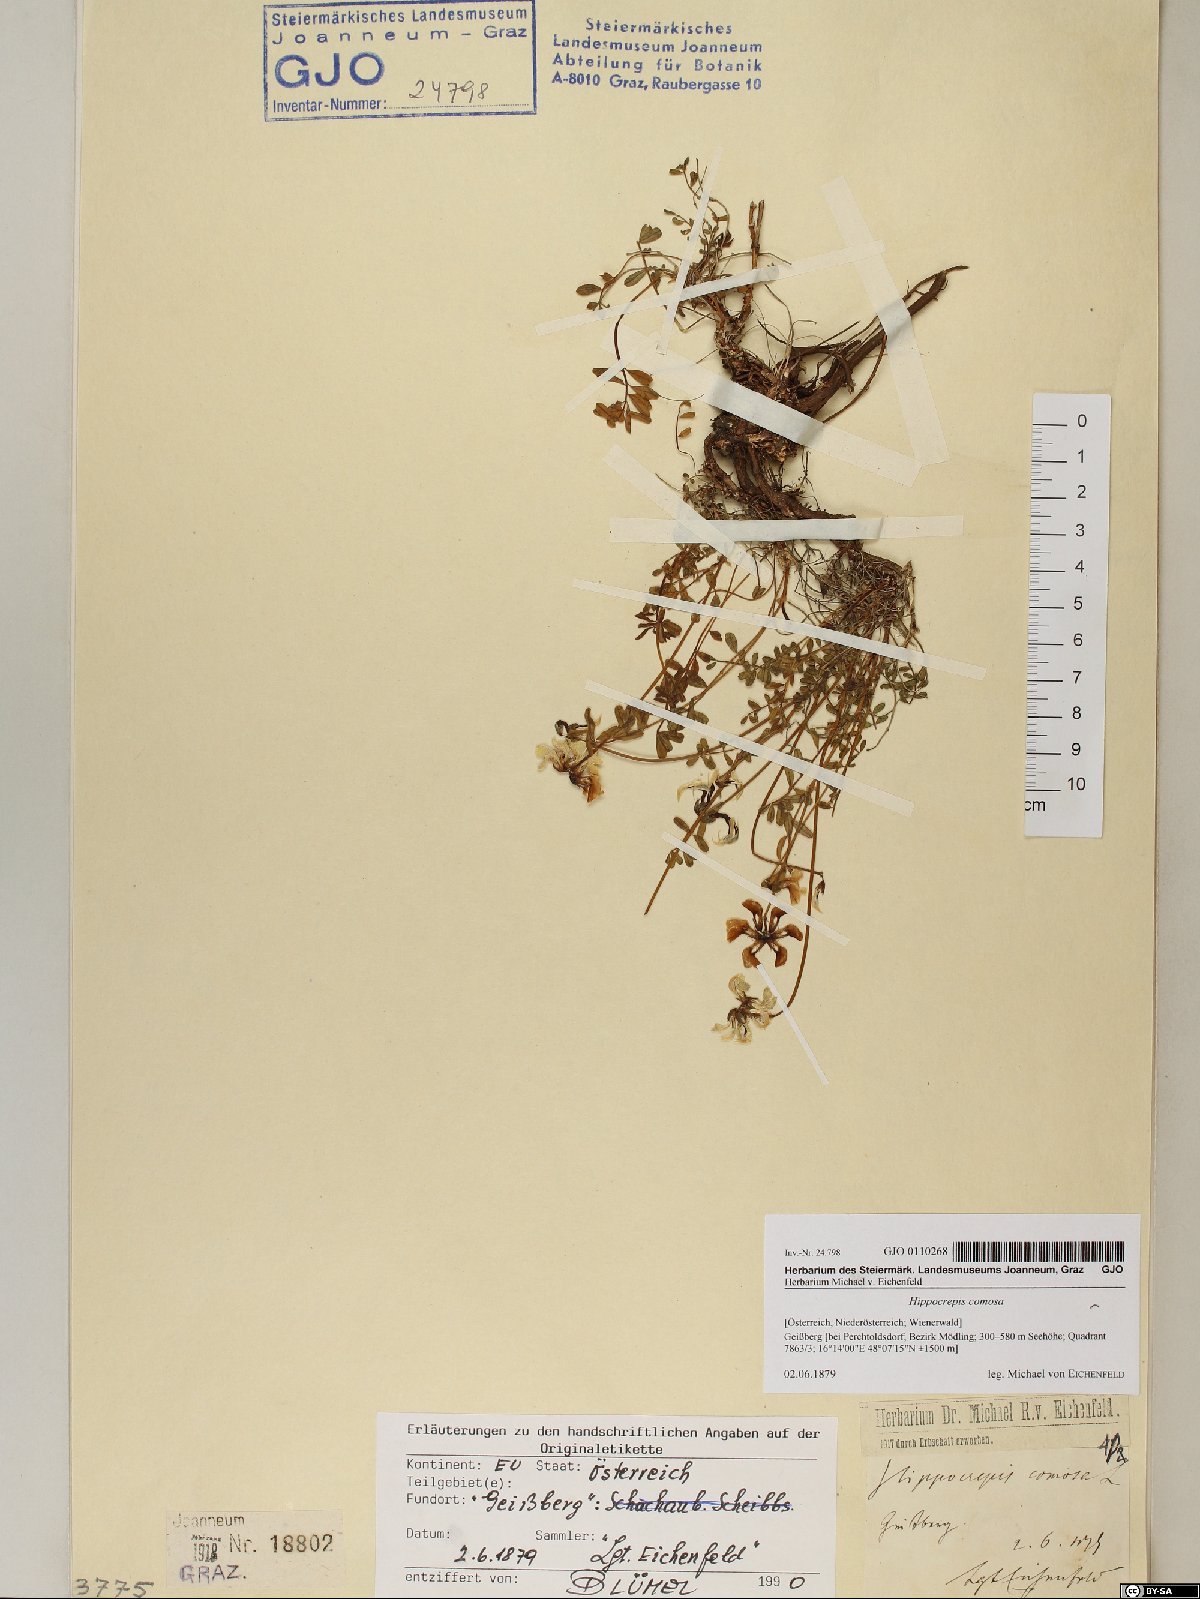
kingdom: Plantae
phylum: Tracheophyta
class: Magnoliopsida
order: Fabales
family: Fabaceae
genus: Hippocrepis
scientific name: Hippocrepis comosa
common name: Horseshoe vetch
